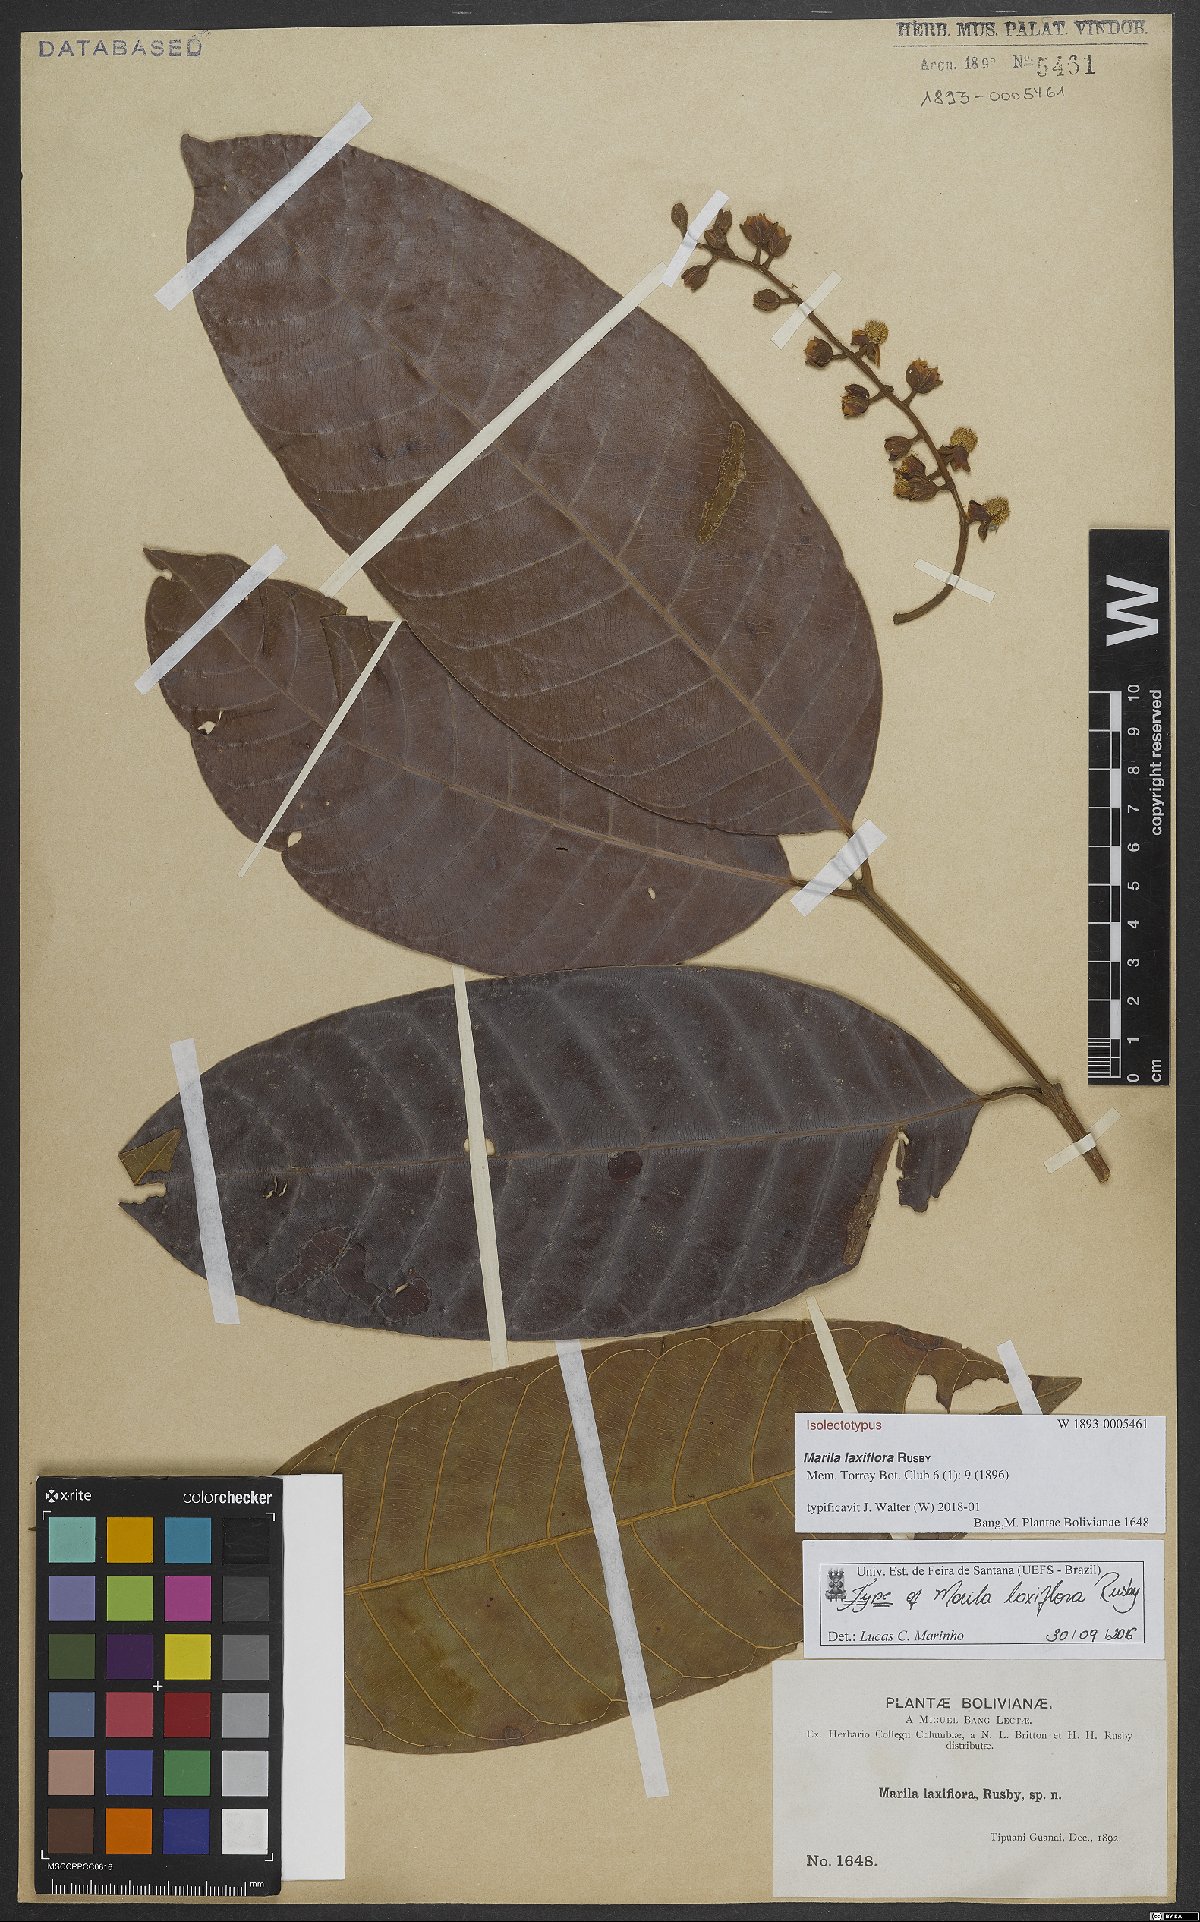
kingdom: Plantae
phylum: Tracheophyta
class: Magnoliopsida
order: Malpighiales
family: Calophyllaceae
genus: Marila
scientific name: Marila laxiflora
